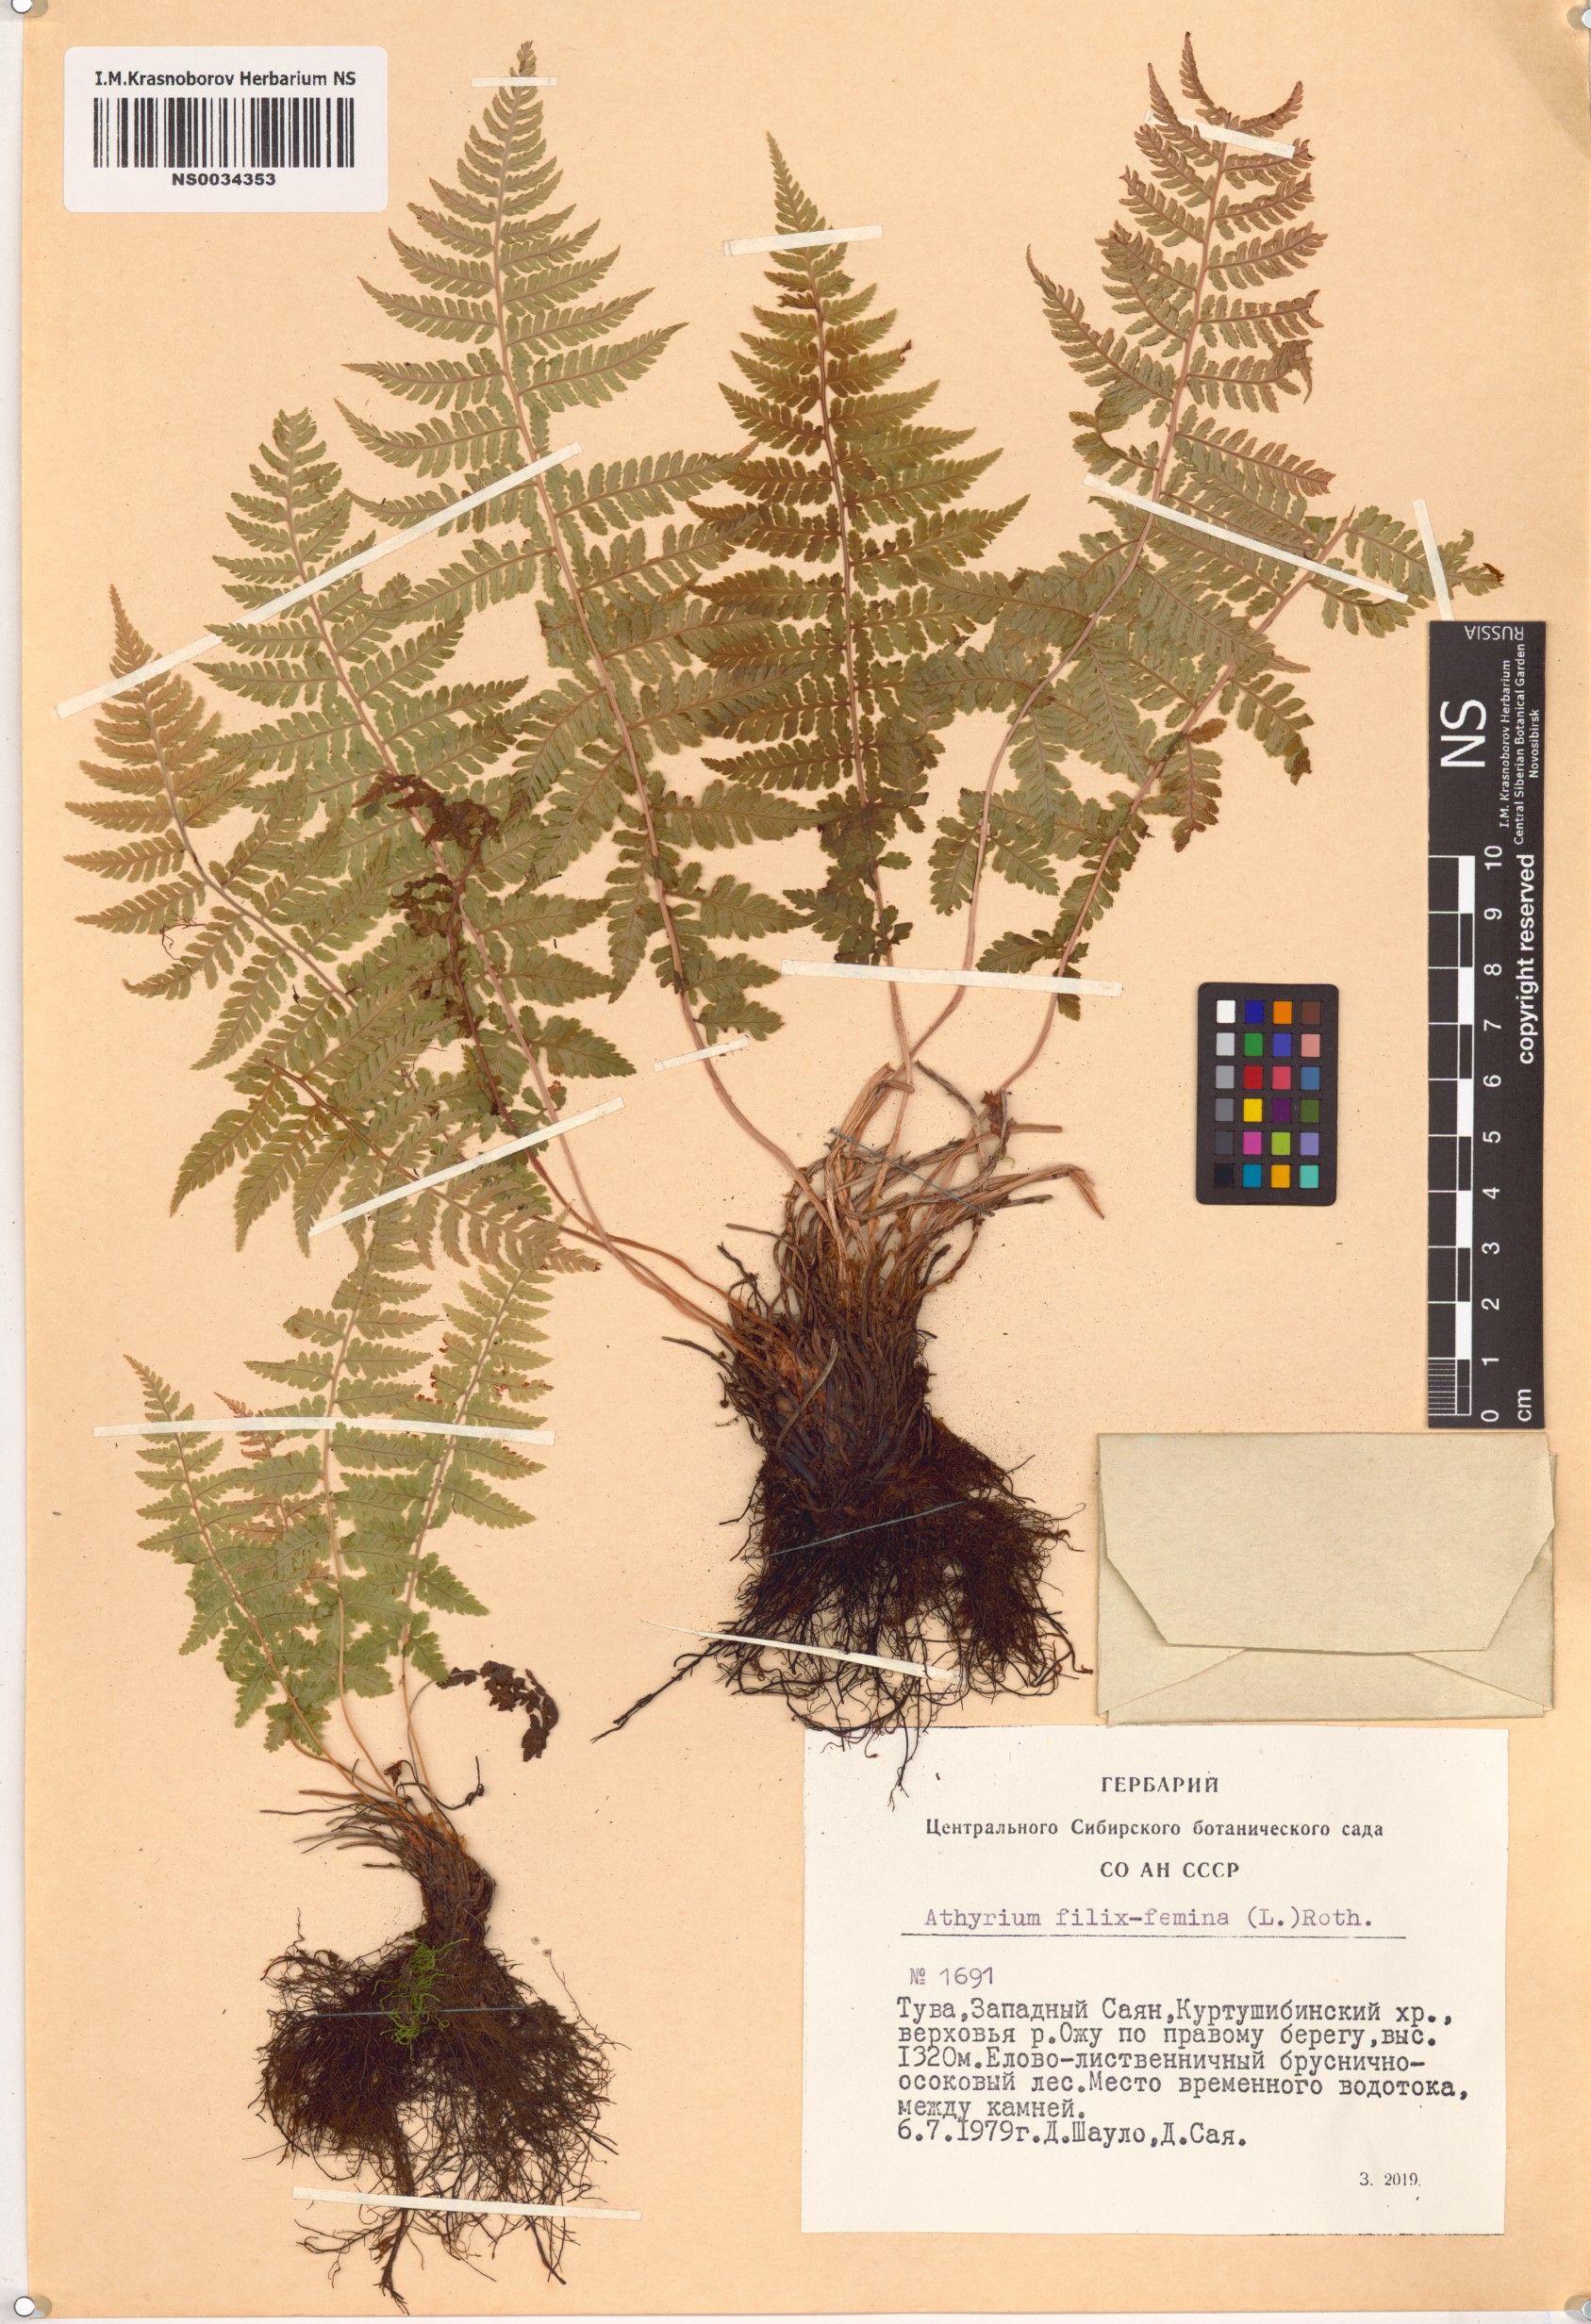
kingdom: Plantae
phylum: Tracheophyta
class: Polypodiopsida
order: Polypodiales
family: Athyriaceae
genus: Athyrium
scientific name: Athyrium filix-femina
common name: Lady fern
